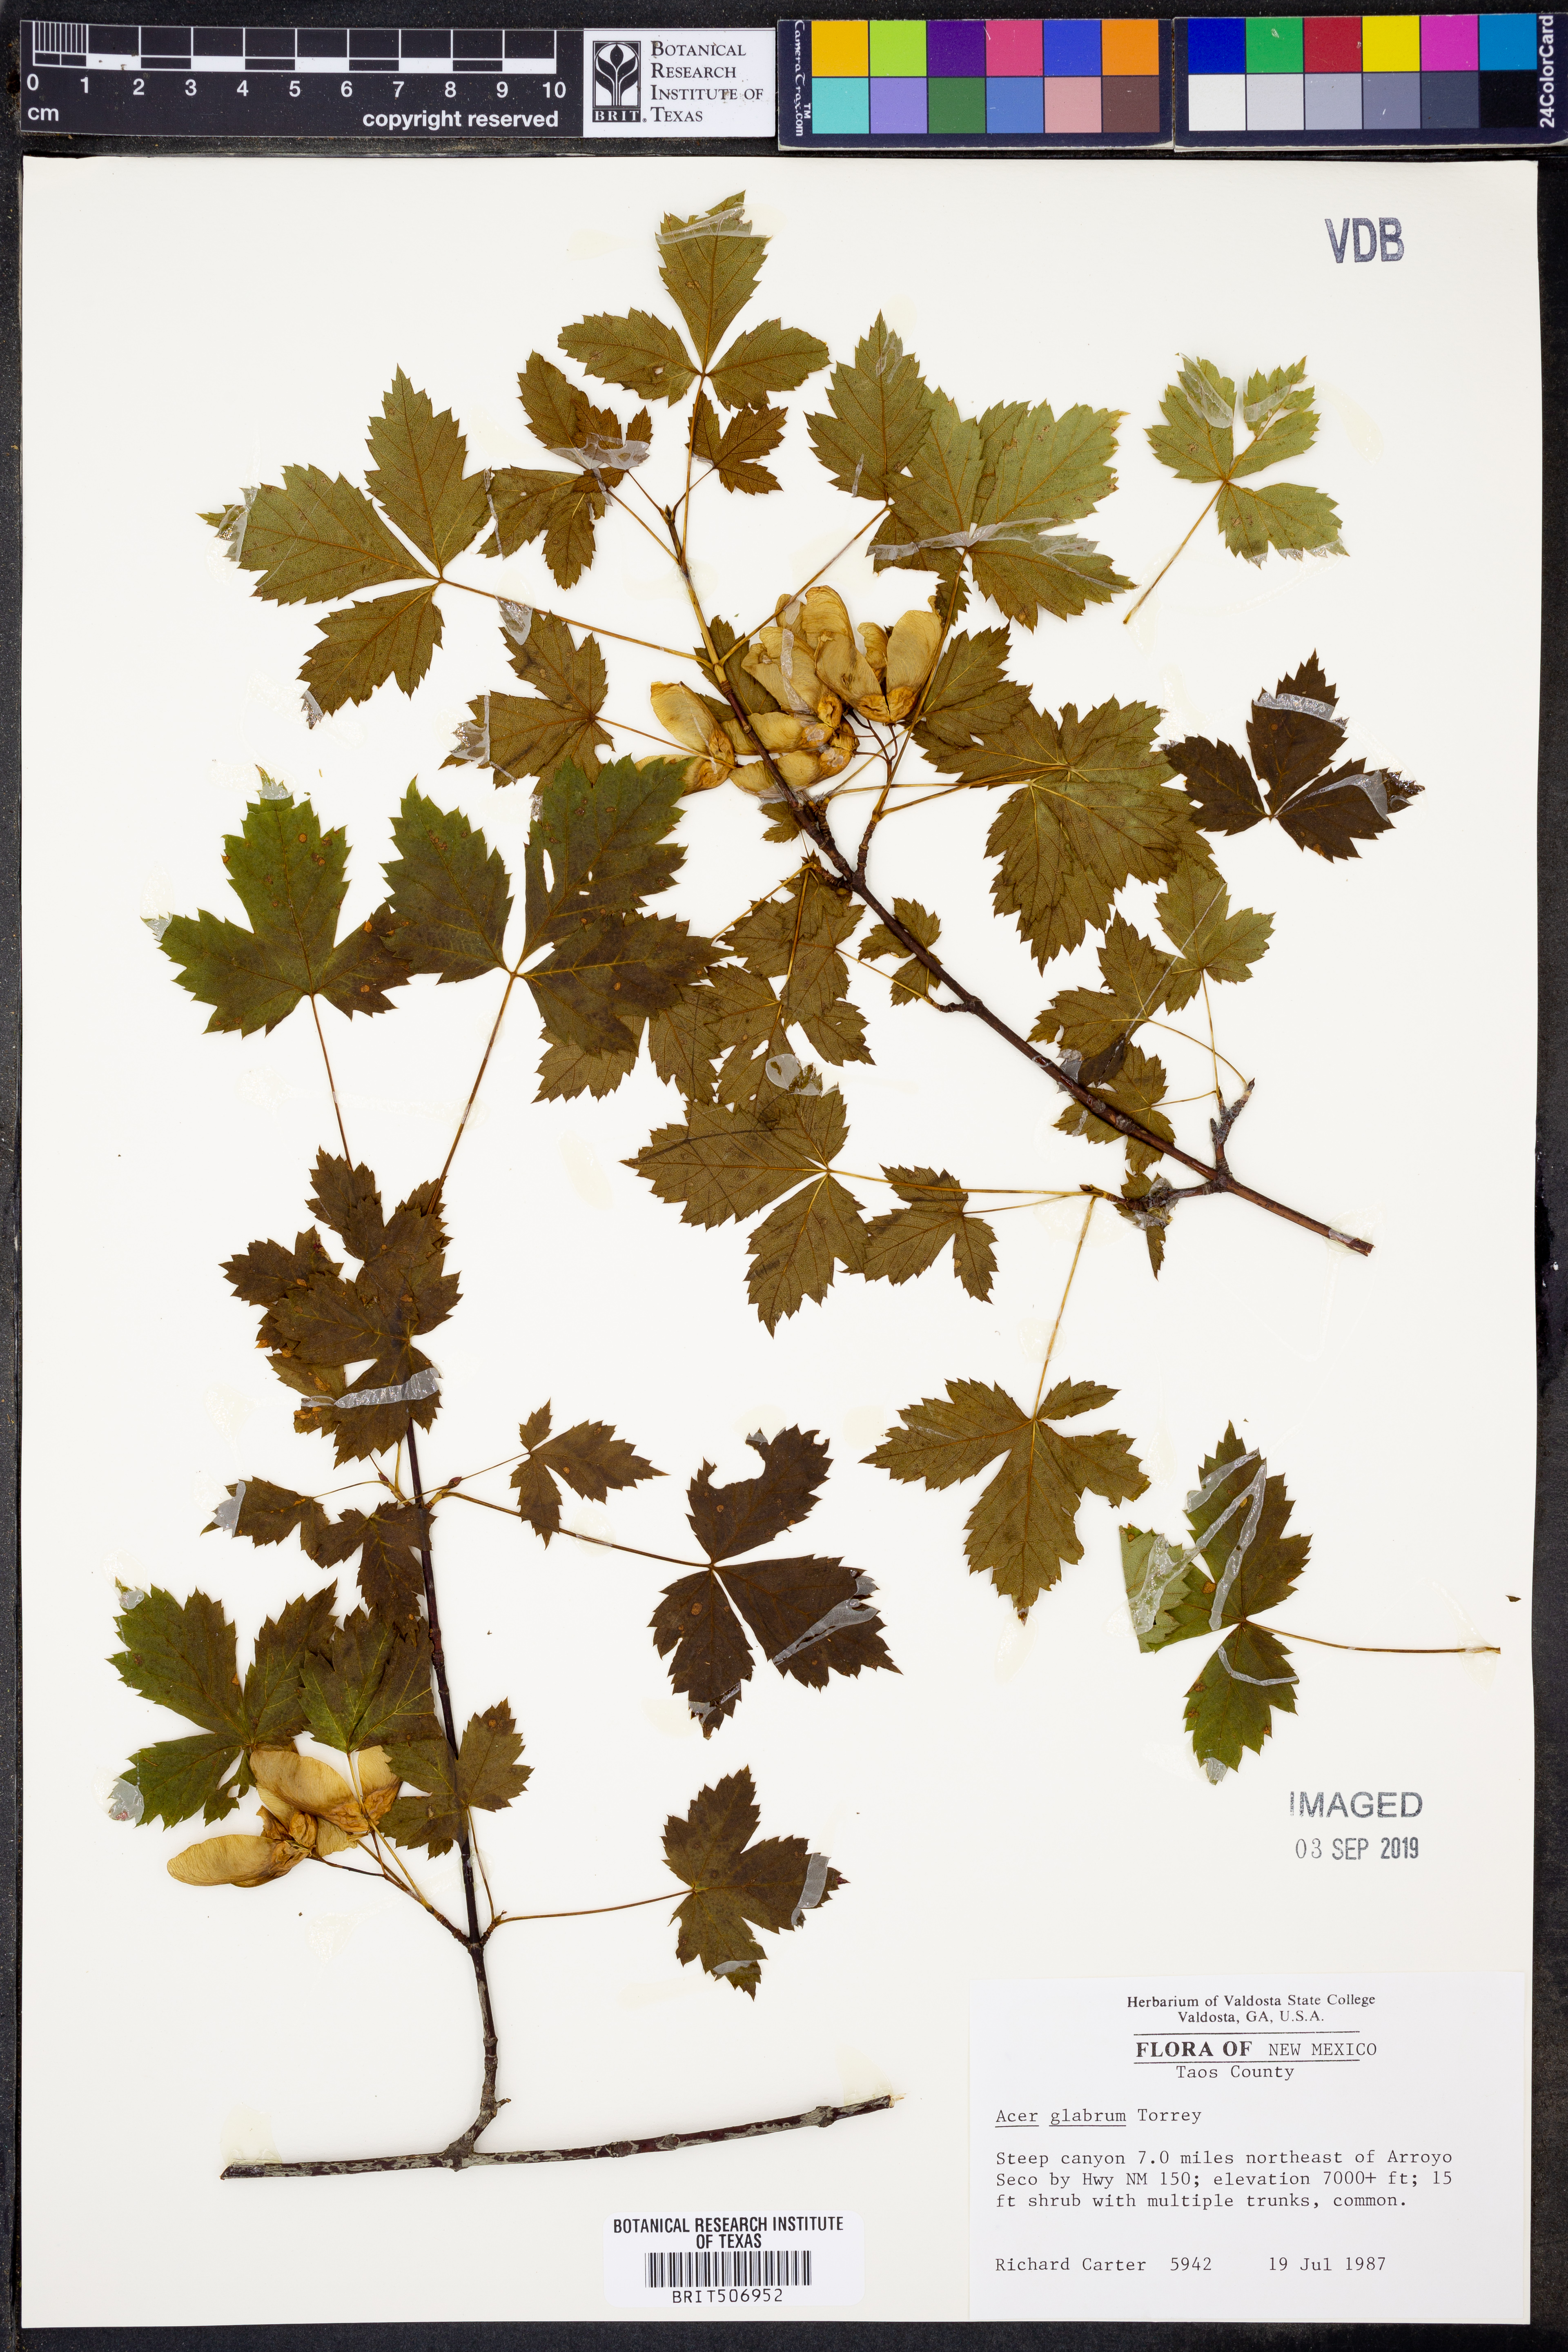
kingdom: Plantae
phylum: Tracheophyta
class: Magnoliopsida
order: Sapindales
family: Sapindaceae
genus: Acer
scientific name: Acer glabrum
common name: Rocky mountain maple
